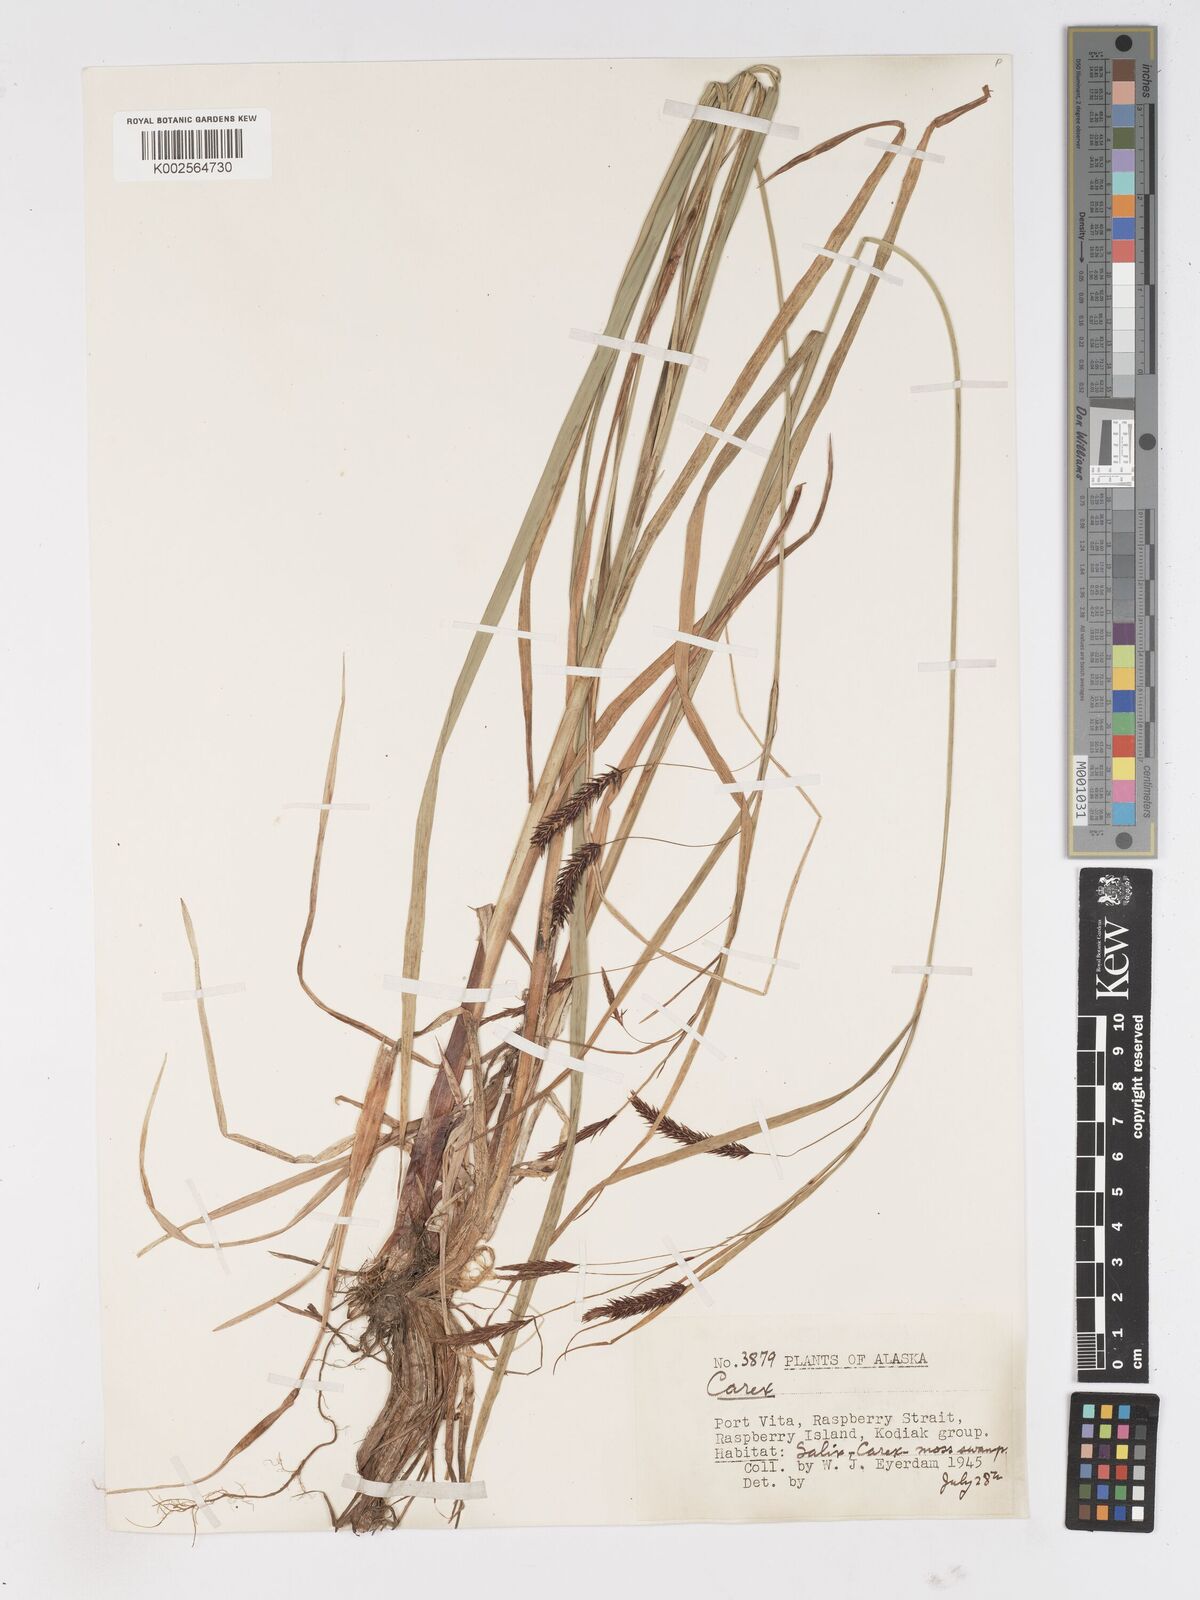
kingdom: Plantae
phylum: Tracheophyta
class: Liliopsida
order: Poales
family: Cyperaceae
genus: Carex
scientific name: Carex
